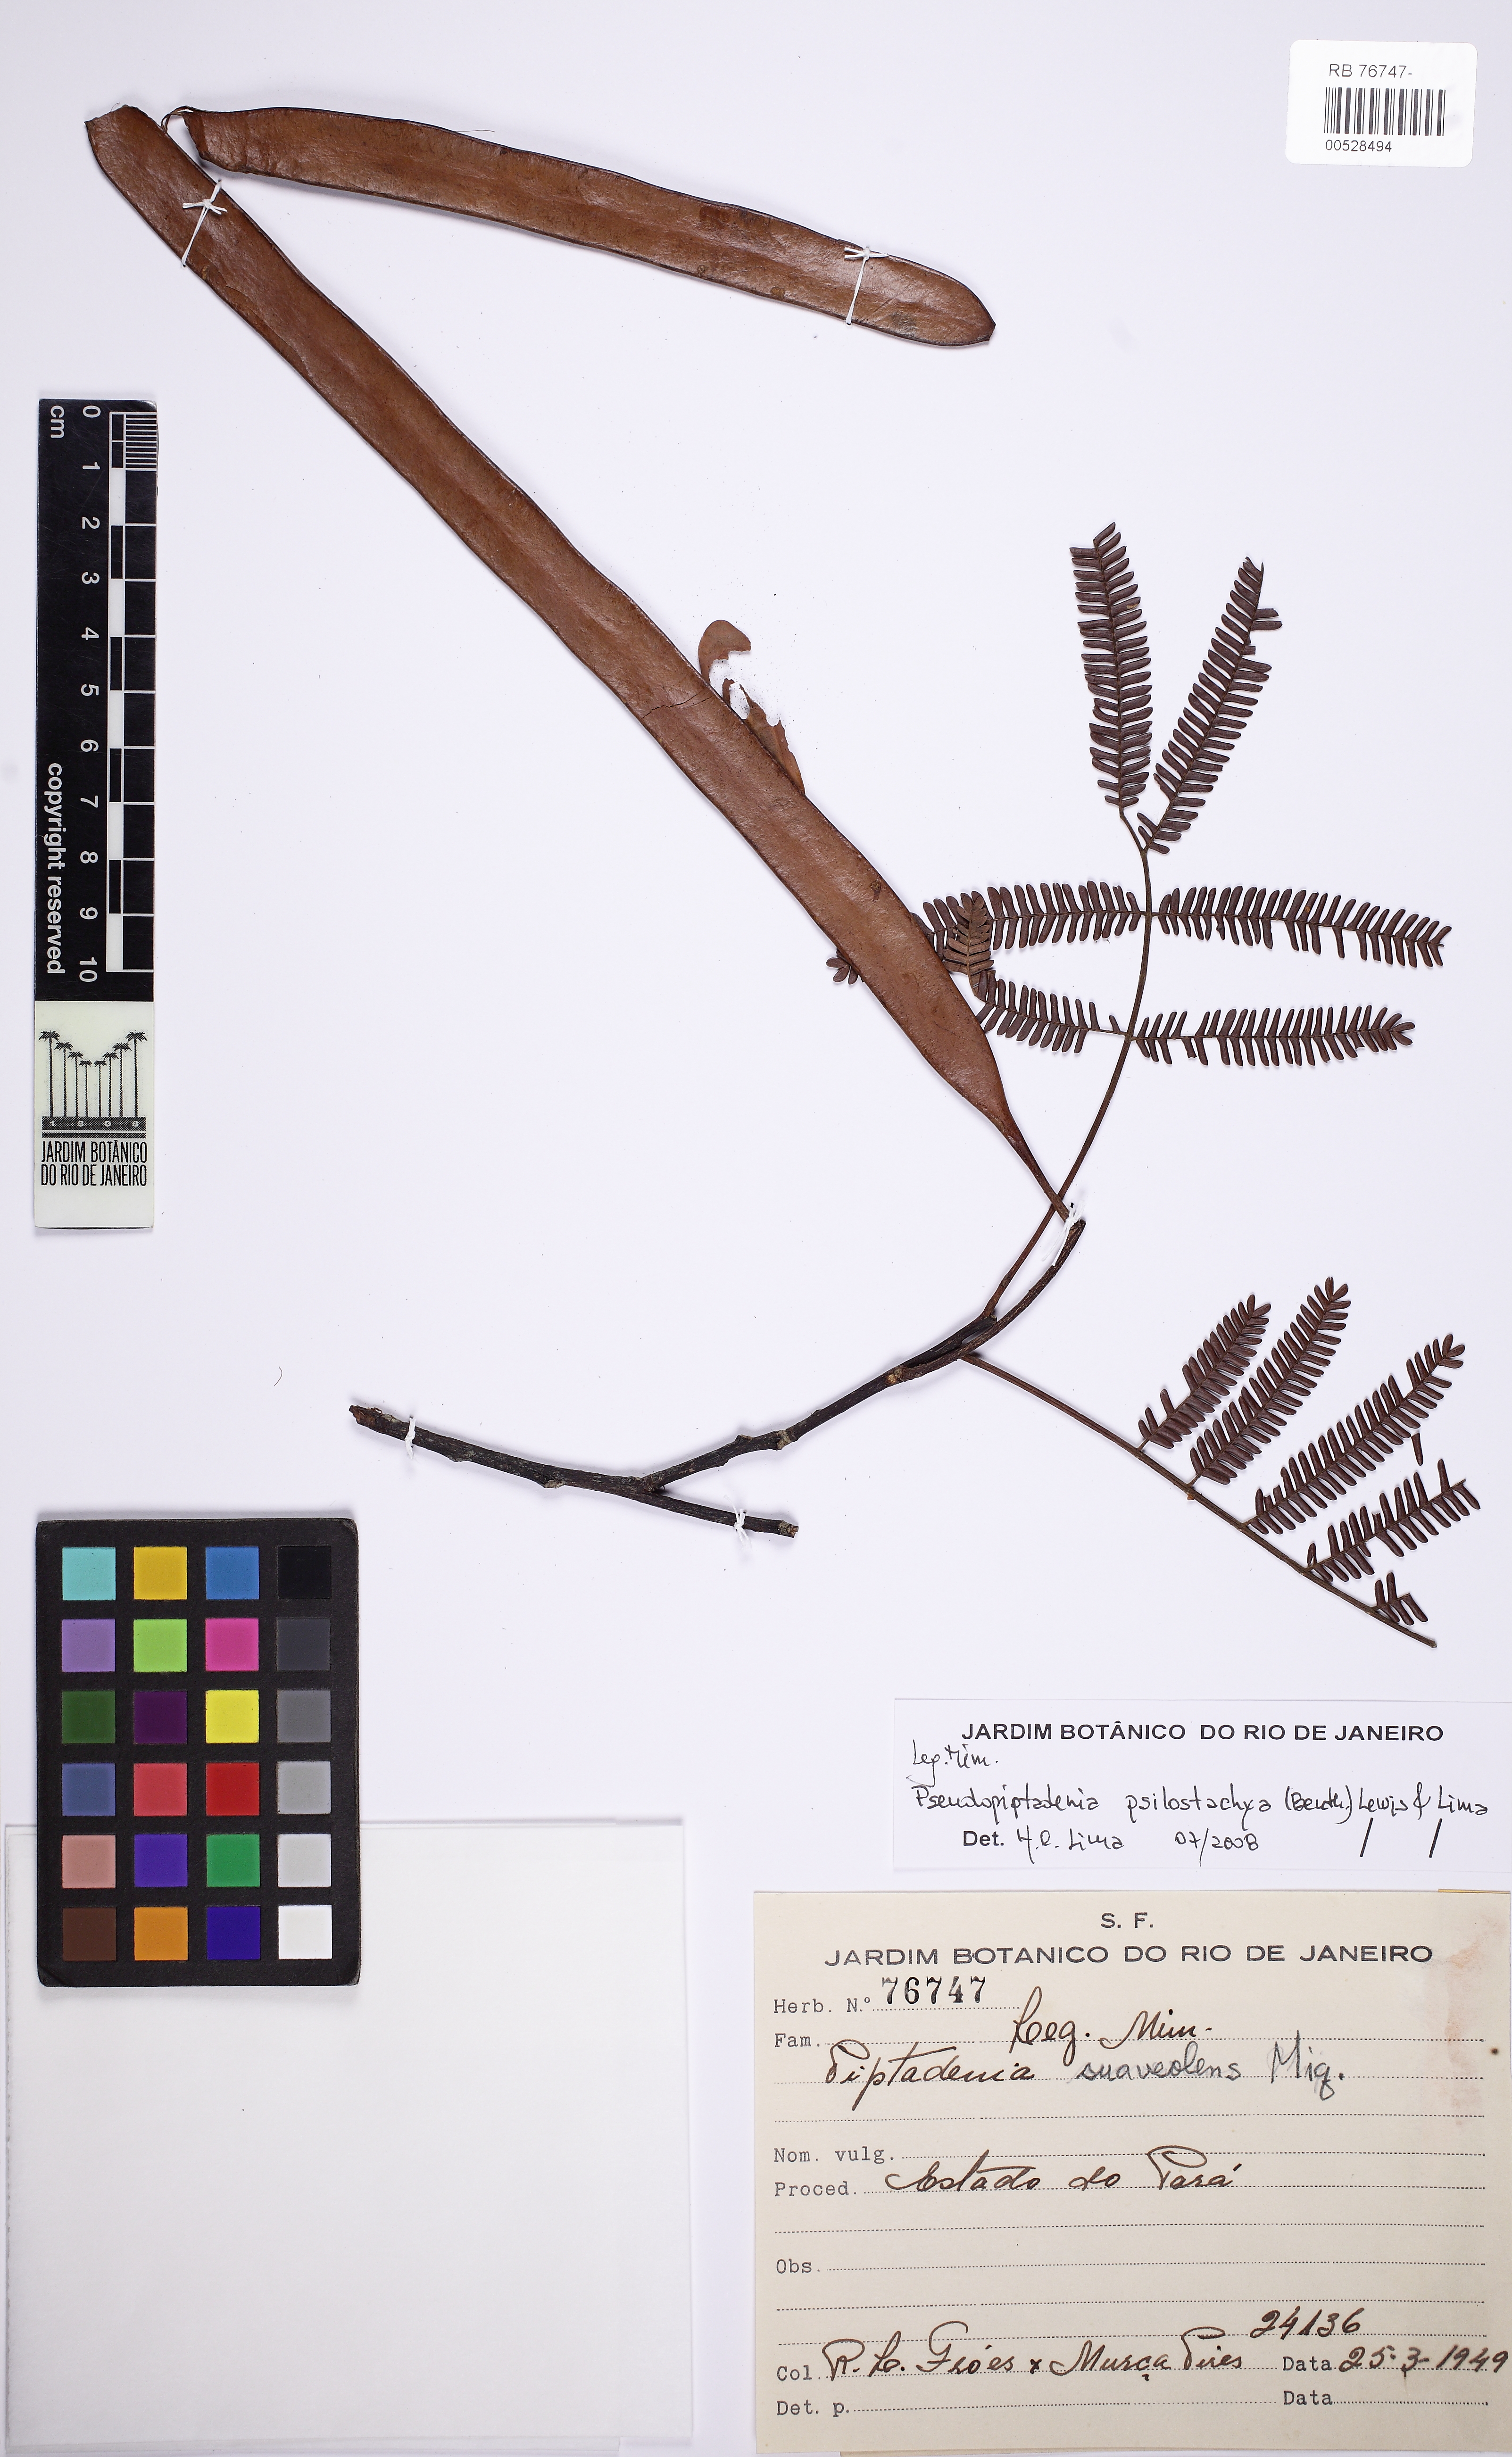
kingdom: Plantae
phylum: Tracheophyta
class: Magnoliopsida
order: Fabales
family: Fabaceae
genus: Pseudopiptadenia
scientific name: Pseudopiptadenia psilostachya
